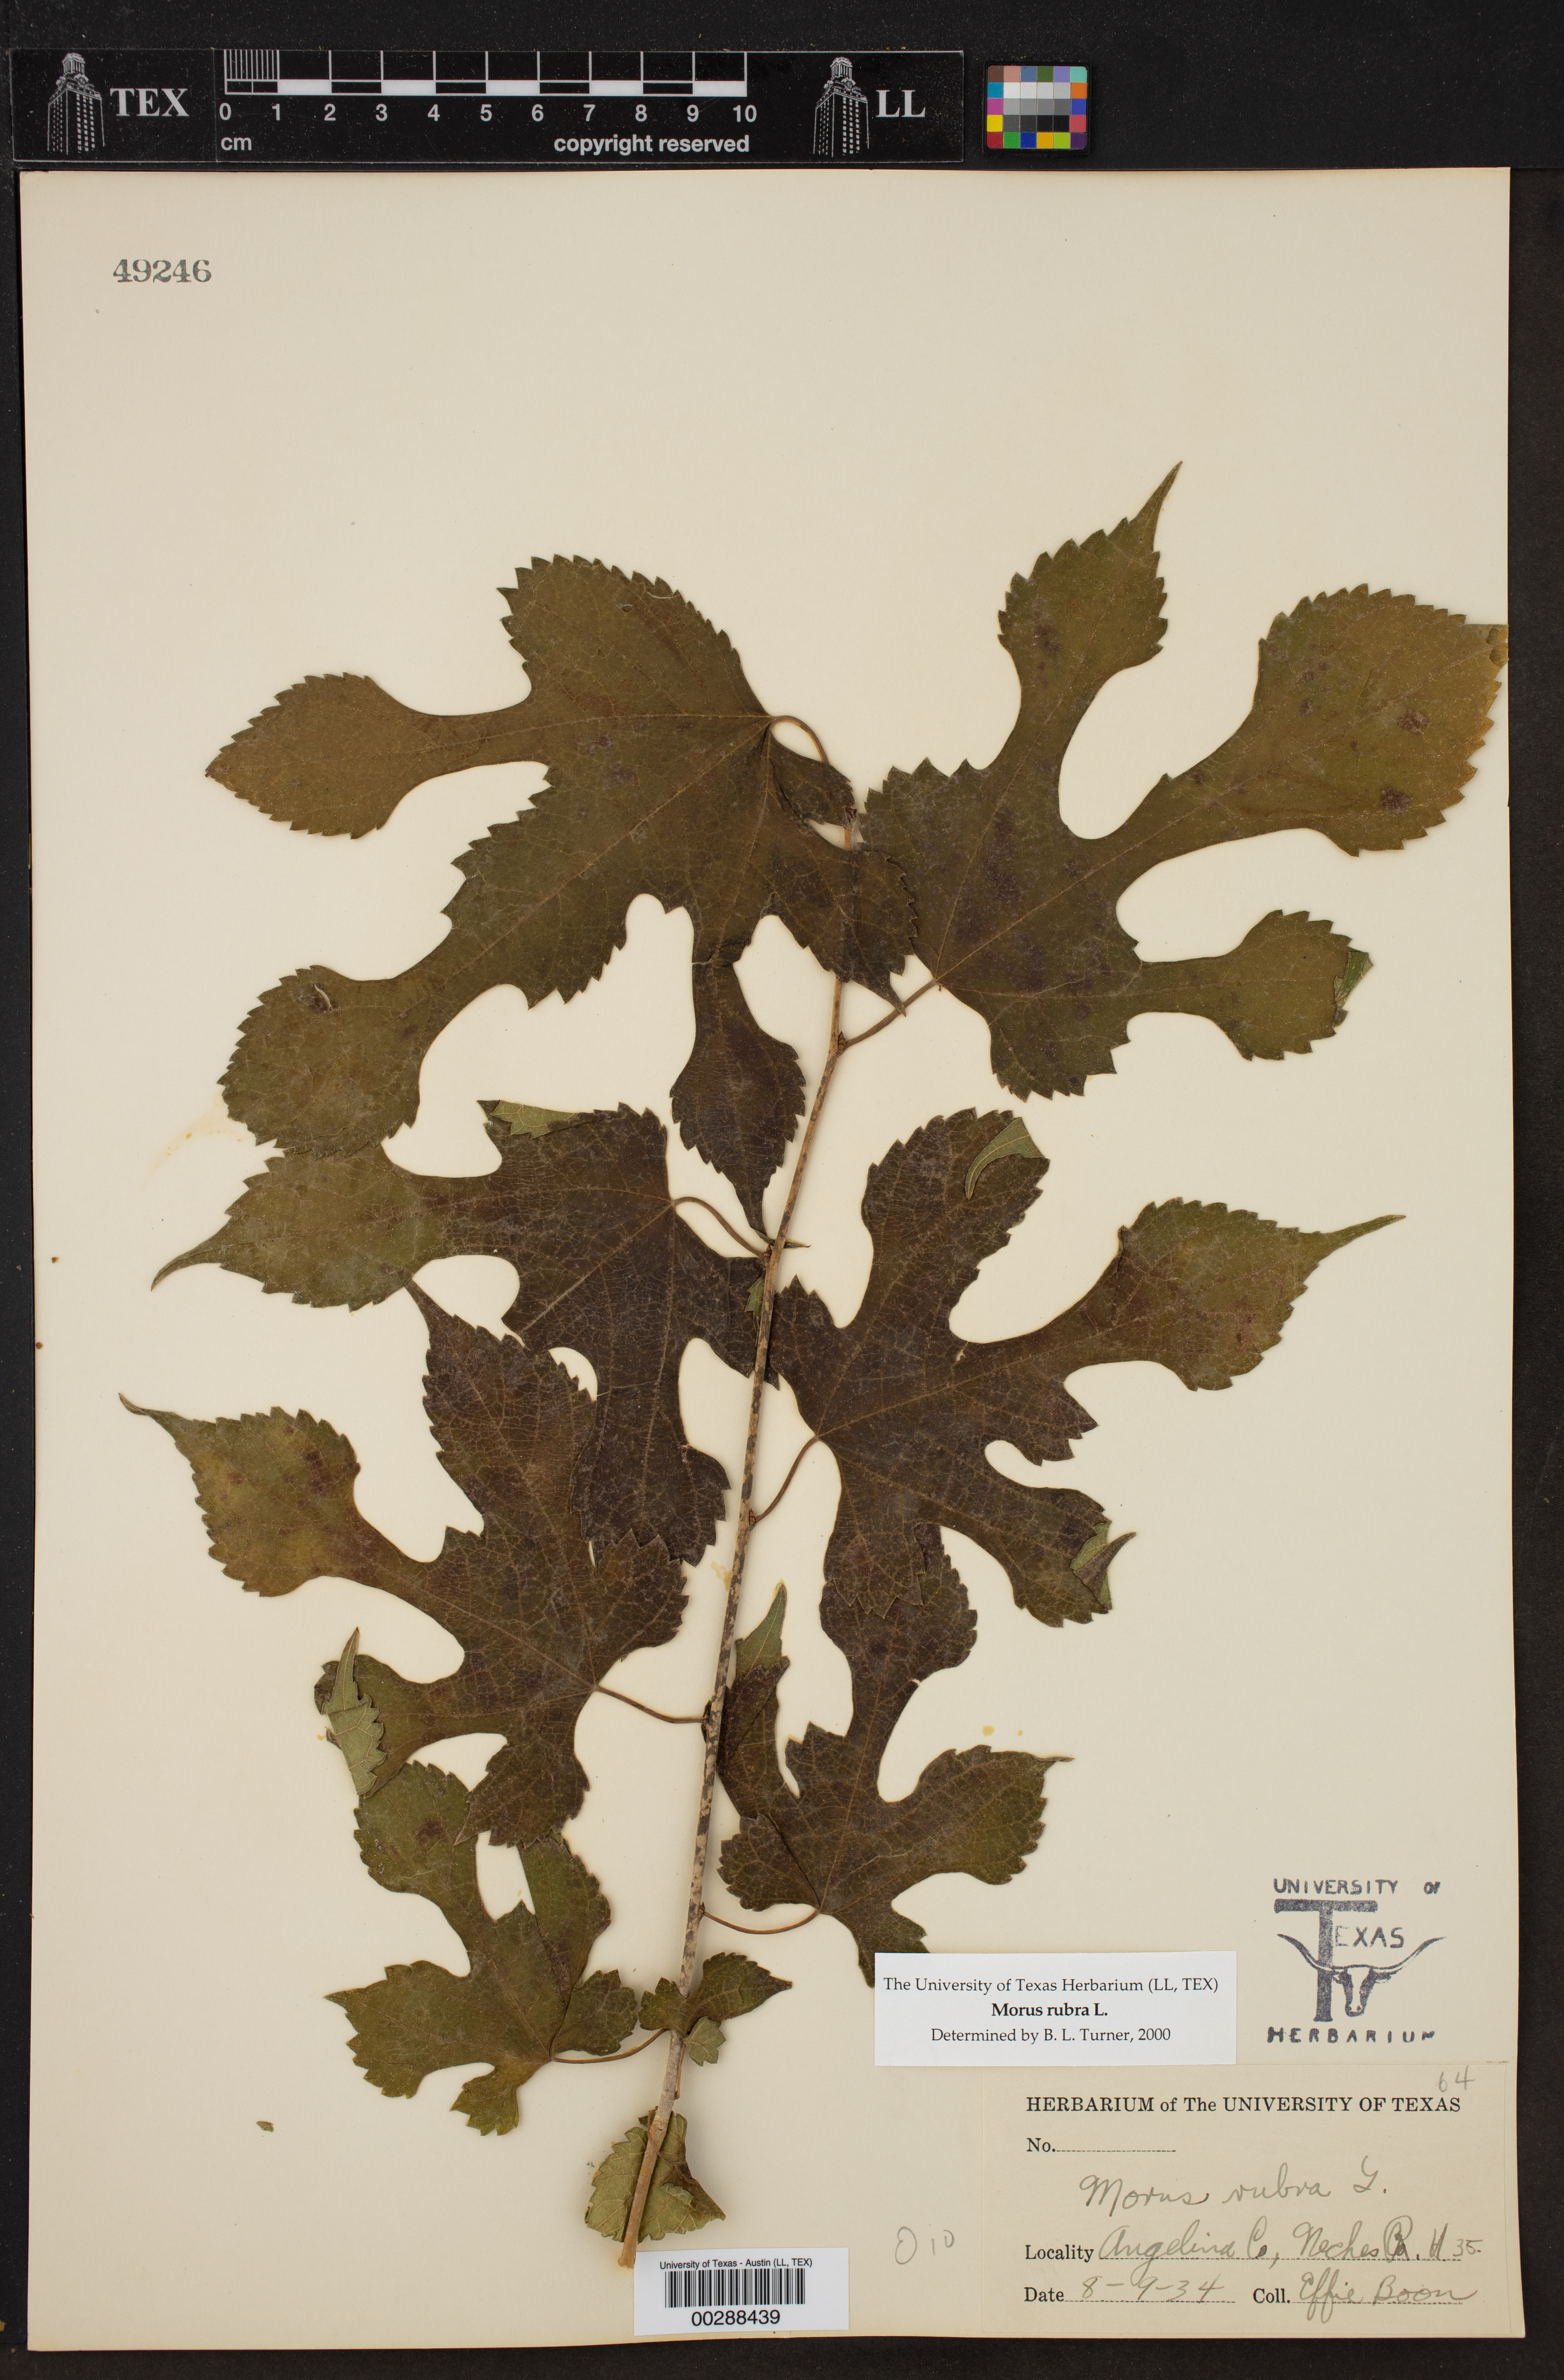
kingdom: Plantae
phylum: Tracheophyta
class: Magnoliopsida
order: Rosales
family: Moraceae
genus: Morus
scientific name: Morus rubra
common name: Red mulberry
